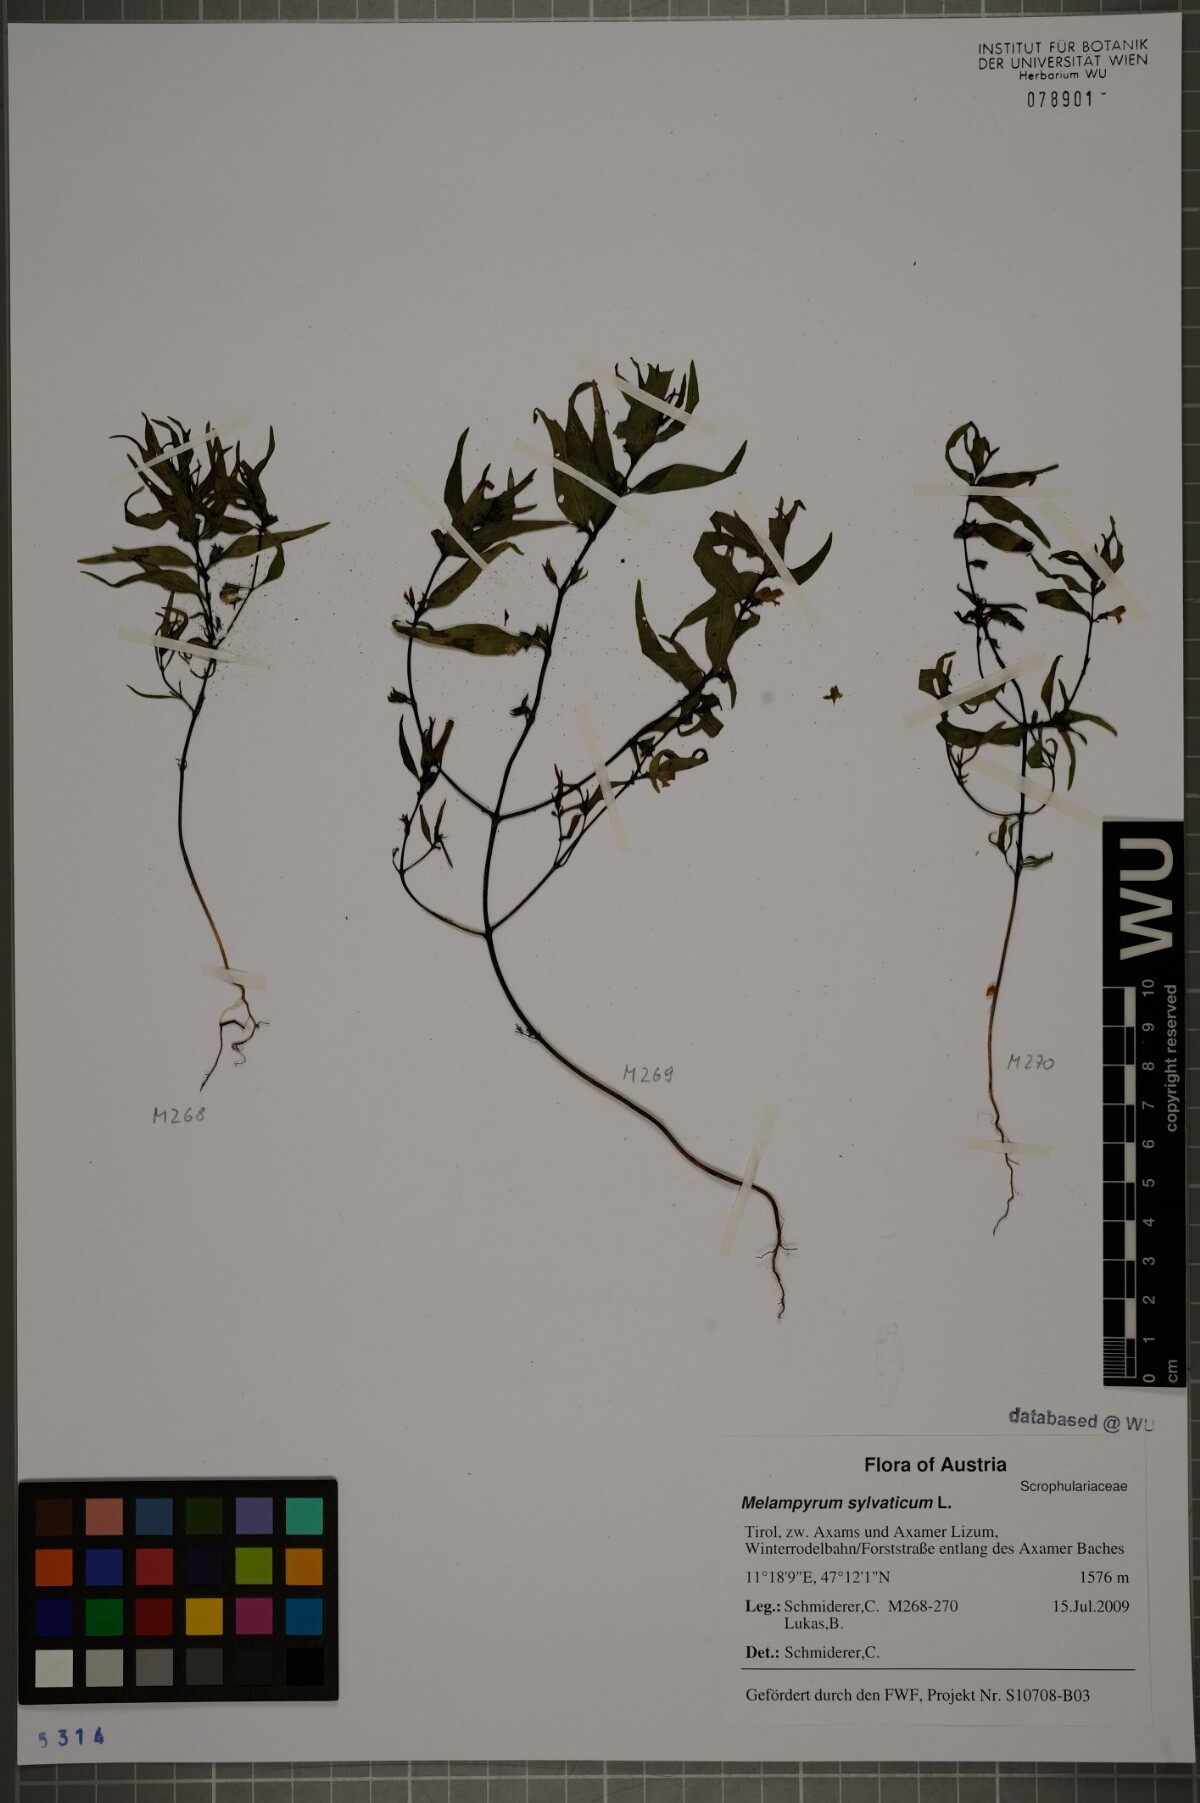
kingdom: Plantae
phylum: Tracheophyta
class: Magnoliopsida
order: Lamiales
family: Orobanchaceae
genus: Melampyrum
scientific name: Melampyrum sylvaticum
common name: Small cow-wheat
